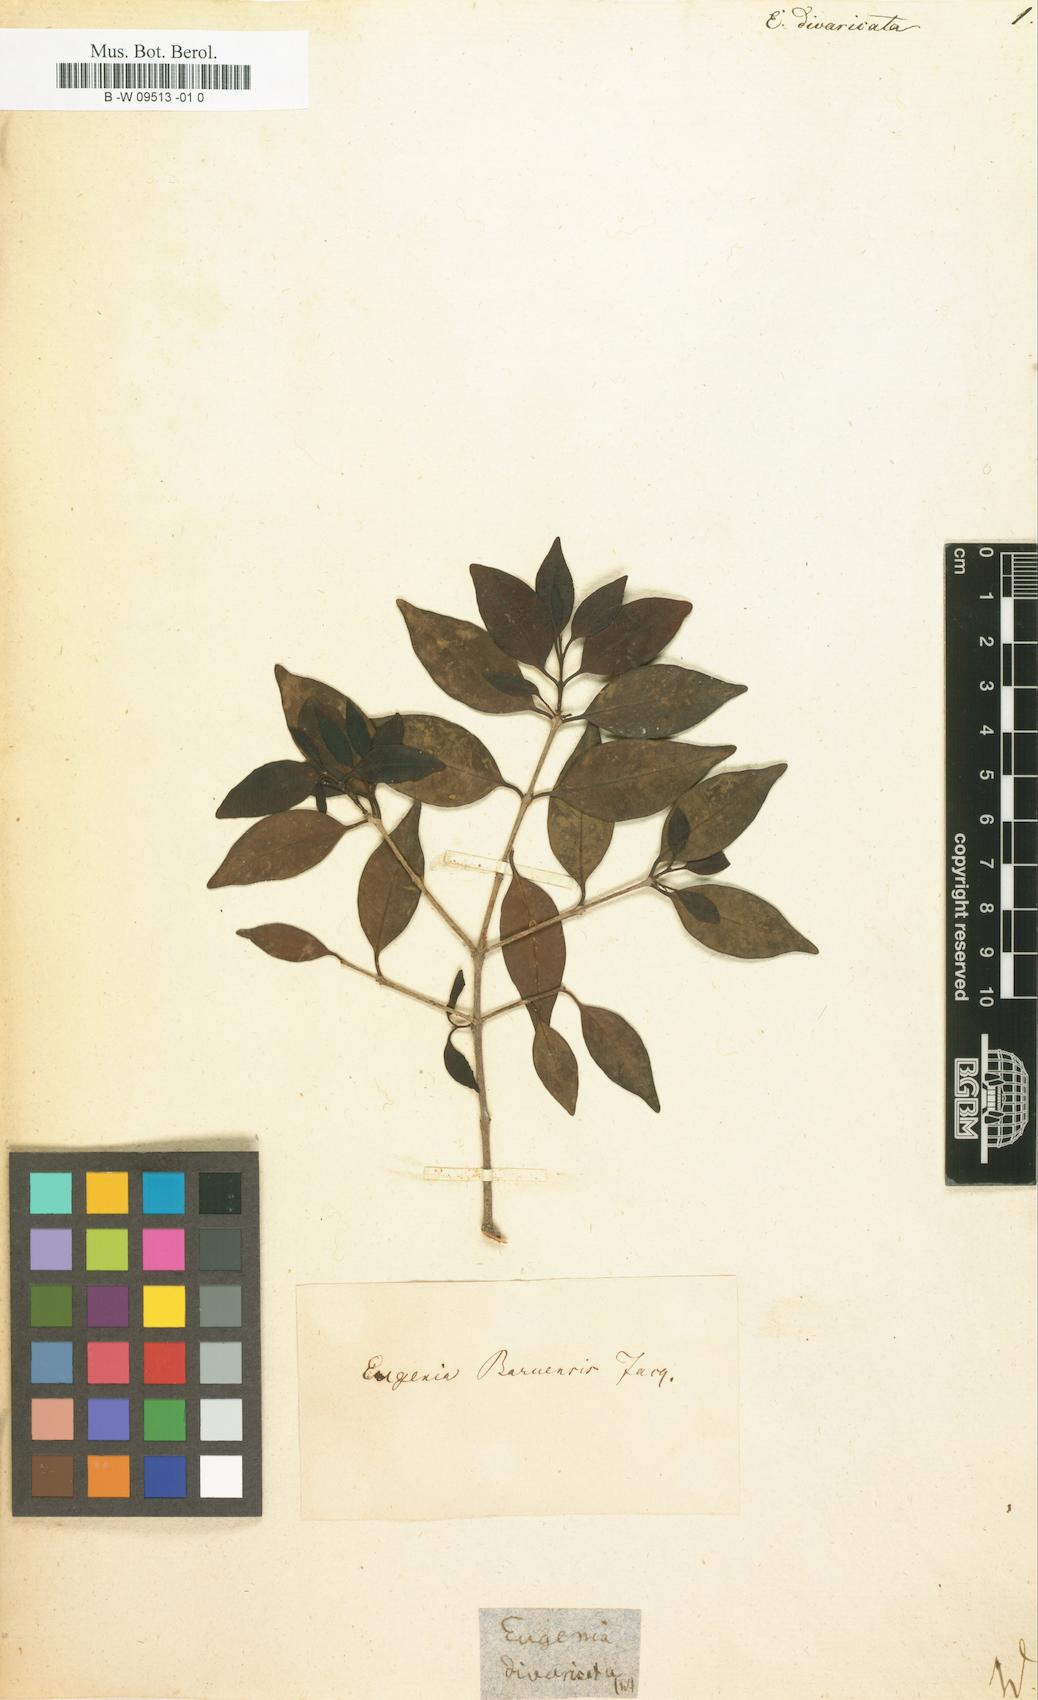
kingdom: Plantae
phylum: Tracheophyta
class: Magnoliopsida
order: Myrtales
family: Myrtaceae
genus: Myrciaria
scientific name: Myrciaria dubia
